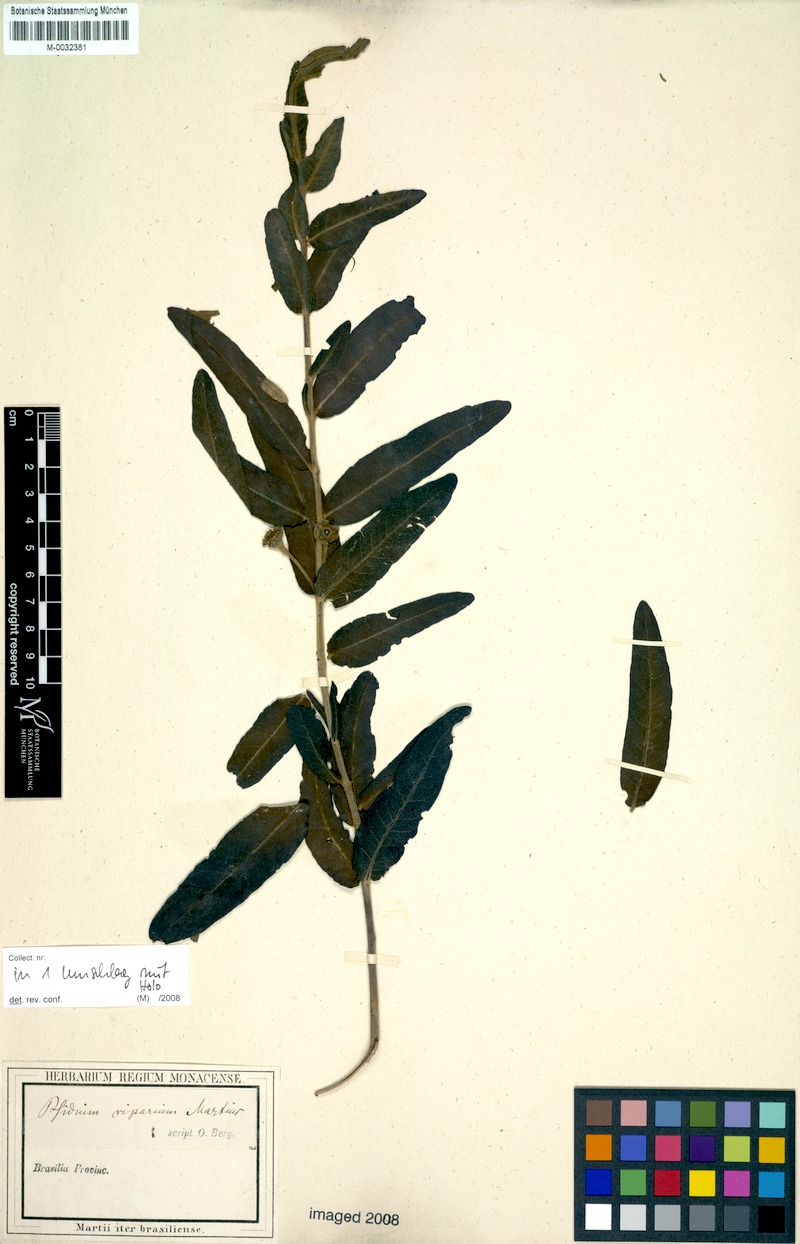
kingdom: Plantae
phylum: Tracheophyta
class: Magnoliopsida
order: Myrtales
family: Myrtaceae
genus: Psidium
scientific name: Psidium riparium
